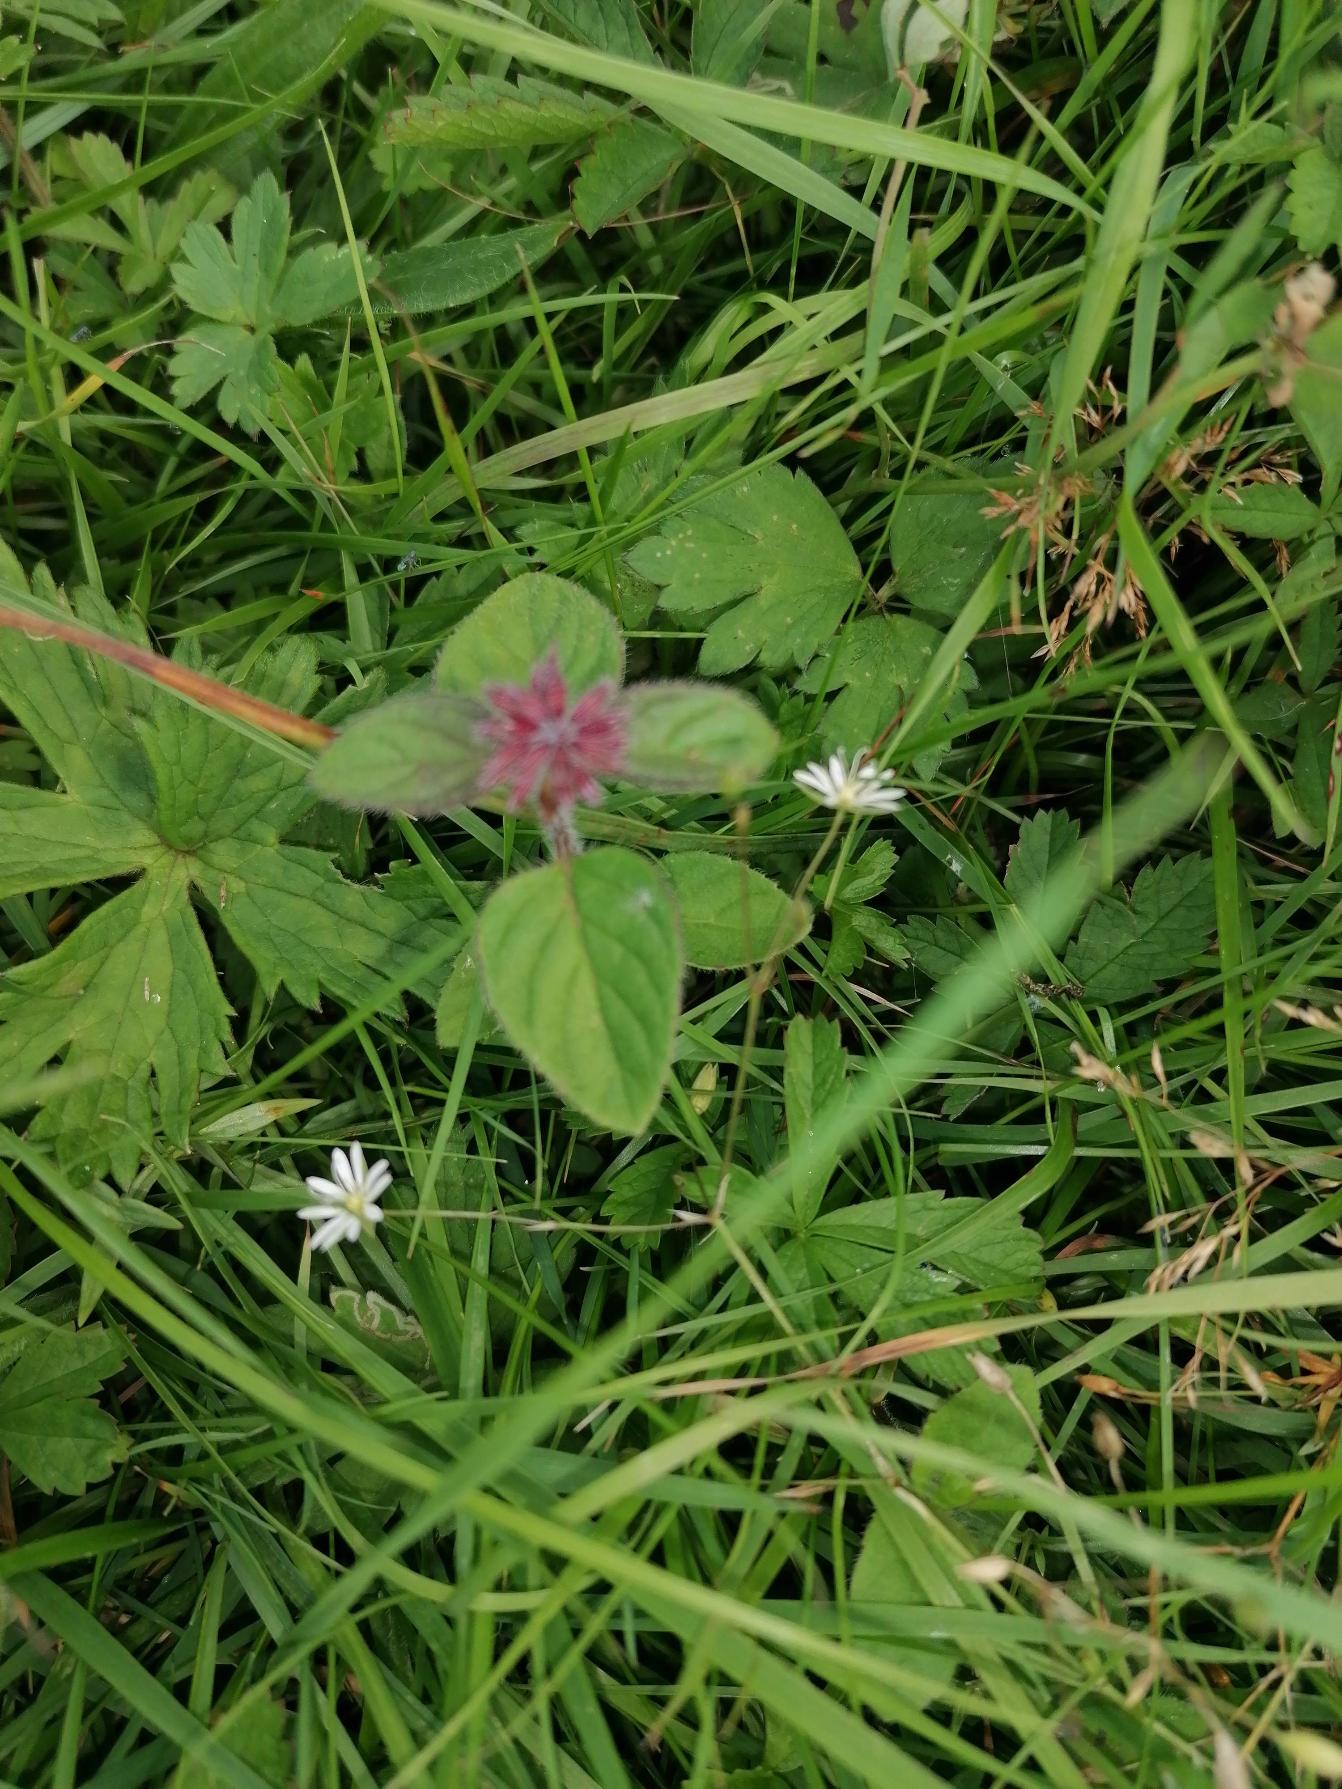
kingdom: Plantae
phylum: Tracheophyta
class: Magnoliopsida
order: Lamiales
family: Lamiaceae
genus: Mentha
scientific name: Mentha aquatica
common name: Vand-mynte
